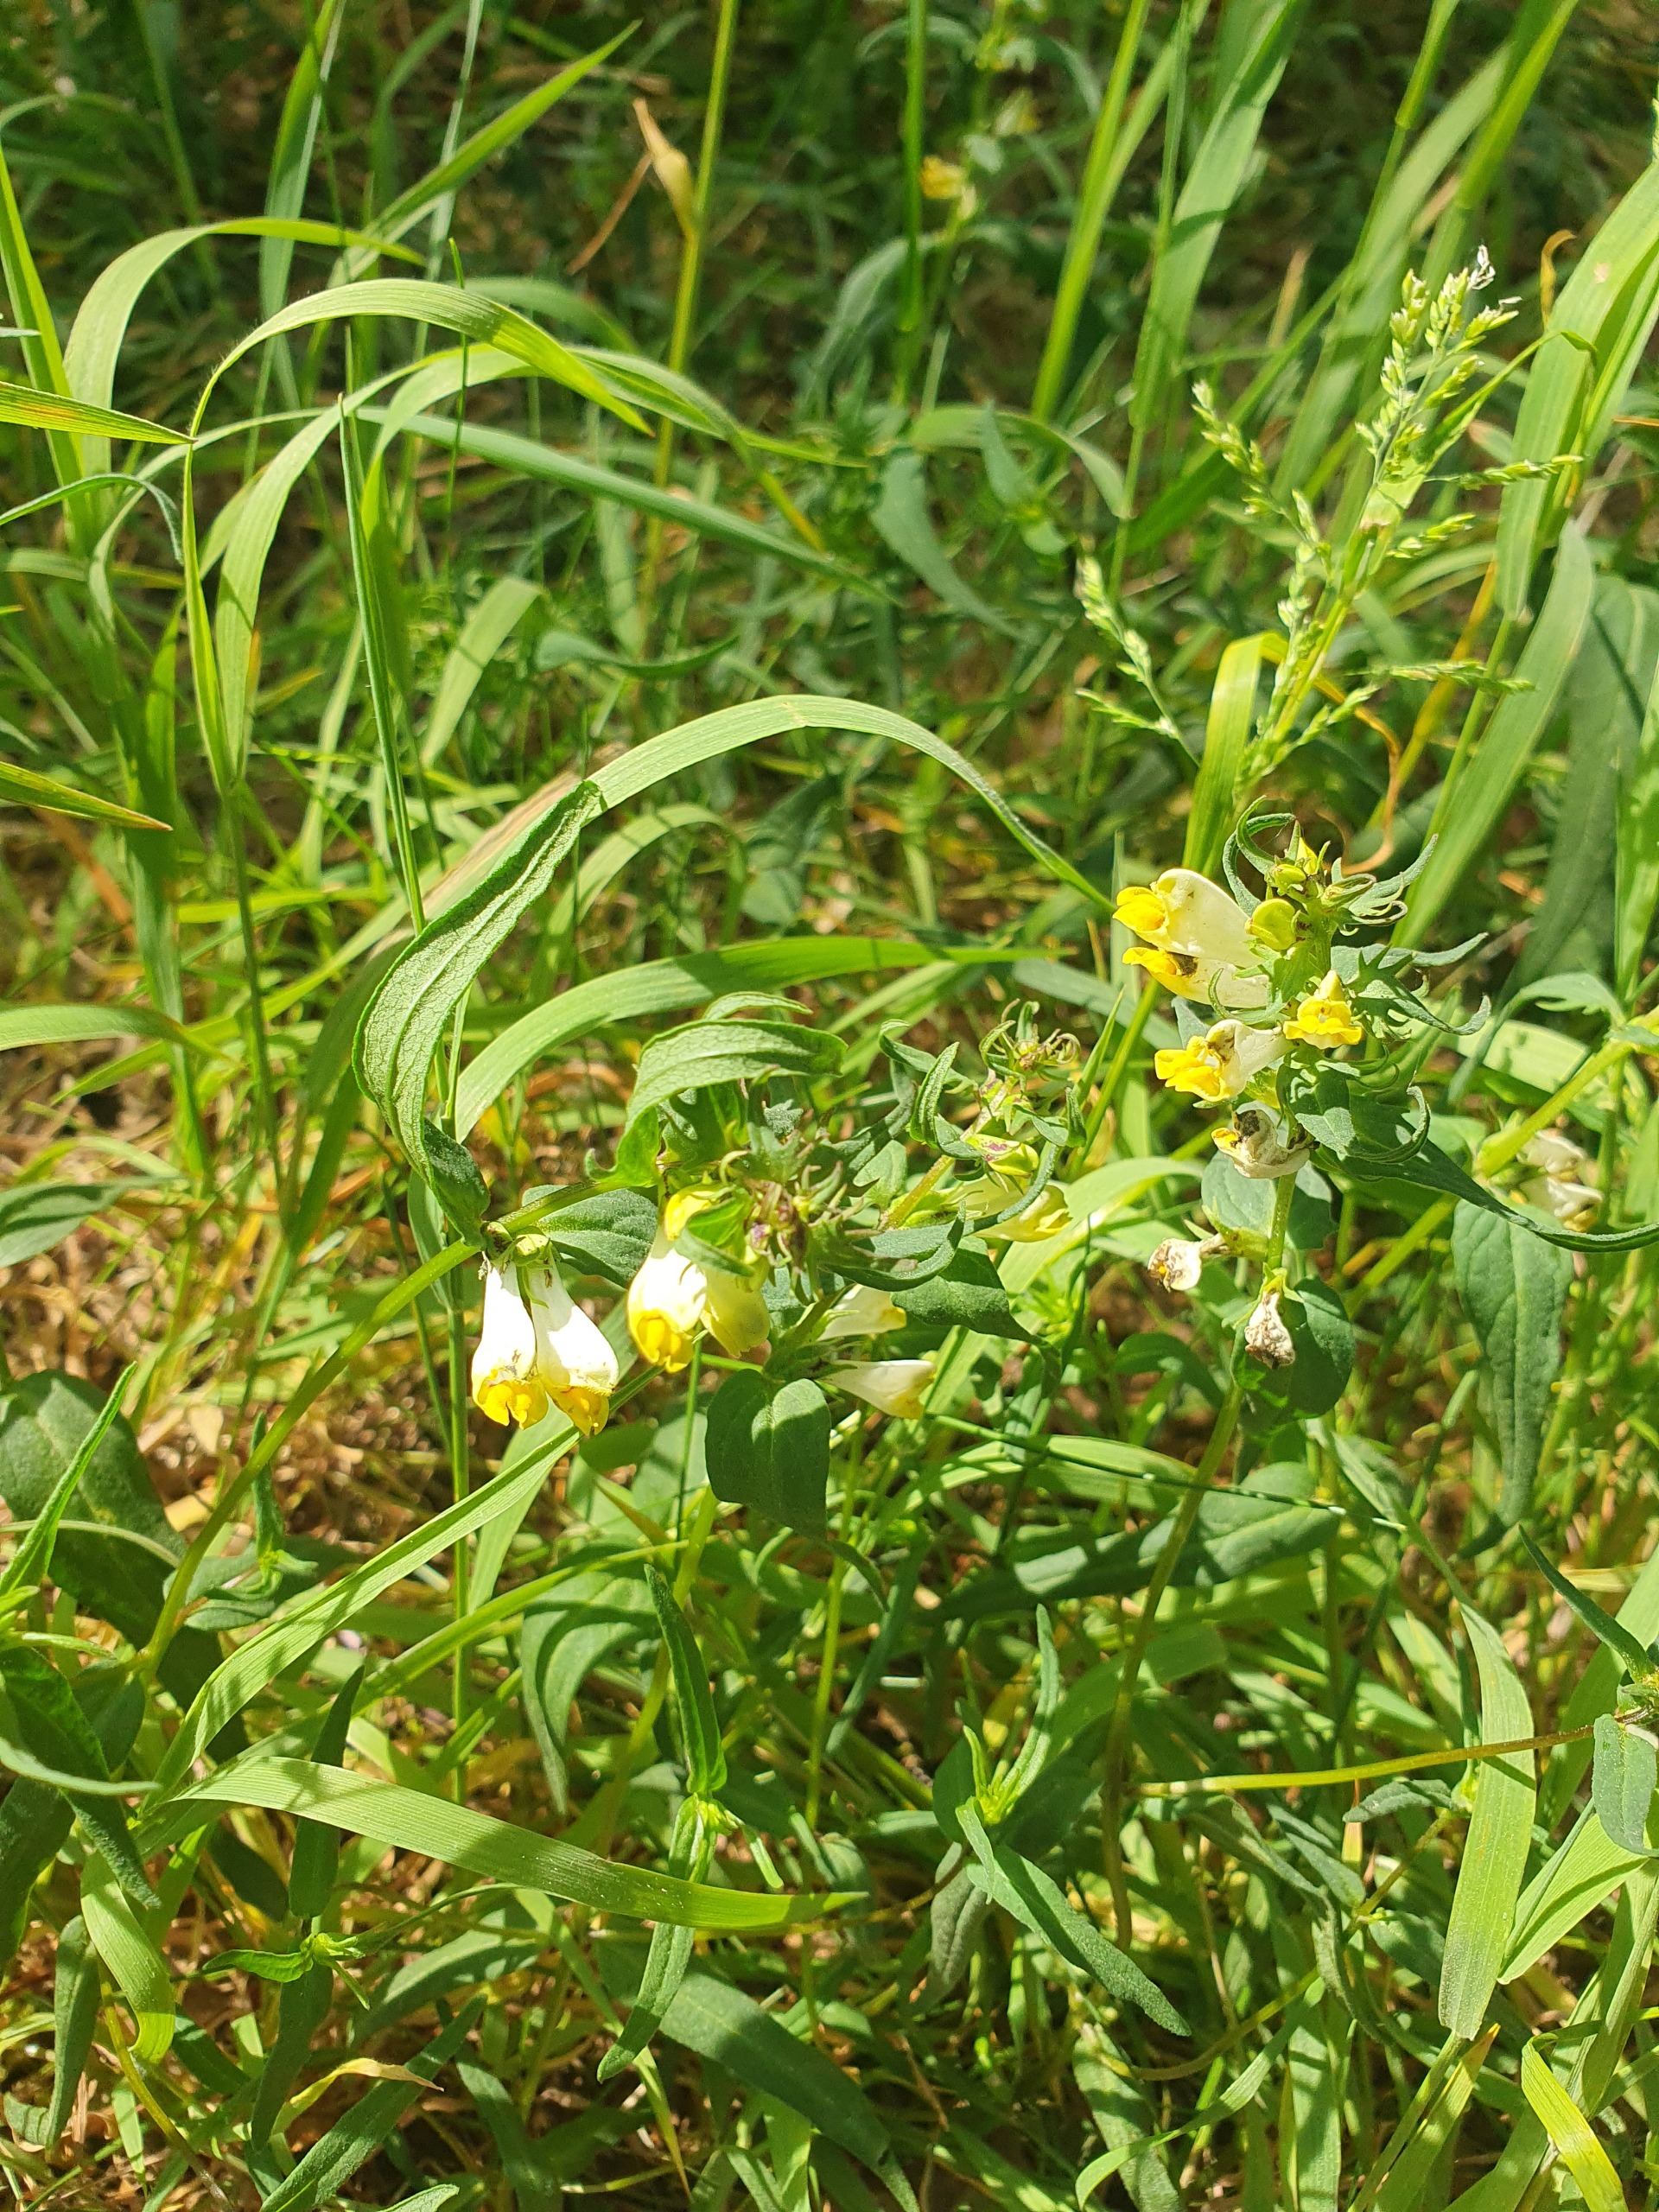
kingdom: Plantae
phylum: Tracheophyta
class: Magnoliopsida
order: Lamiales
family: Orobanchaceae
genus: Melampyrum
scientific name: Melampyrum pratense
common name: Almindelig kohvede
